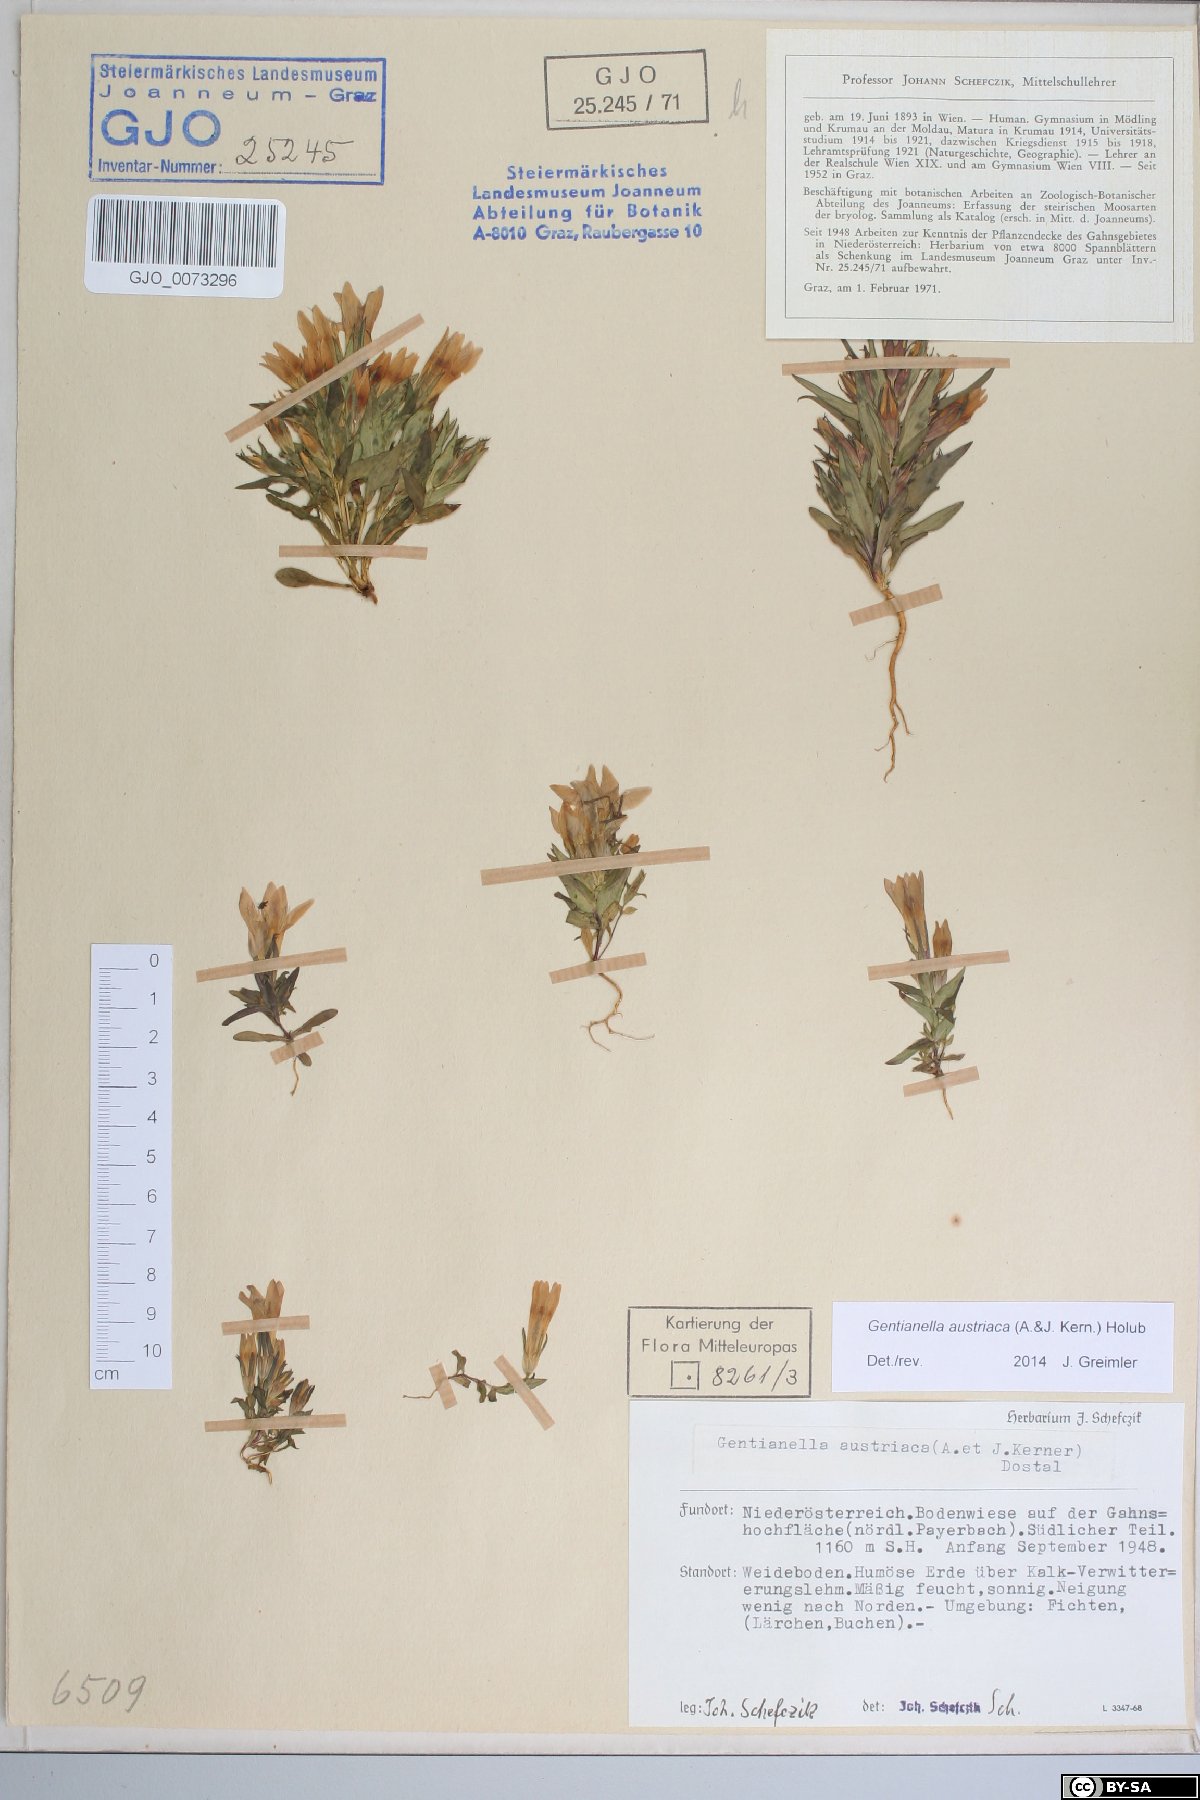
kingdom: Plantae
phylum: Tracheophyta
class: Magnoliopsida
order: Gentianales
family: Gentianaceae
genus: Gentianella
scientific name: Gentianella austriaca
